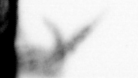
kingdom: Chromista
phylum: Ochrophyta
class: Bacillariophyceae
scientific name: Bacillariophyceae
